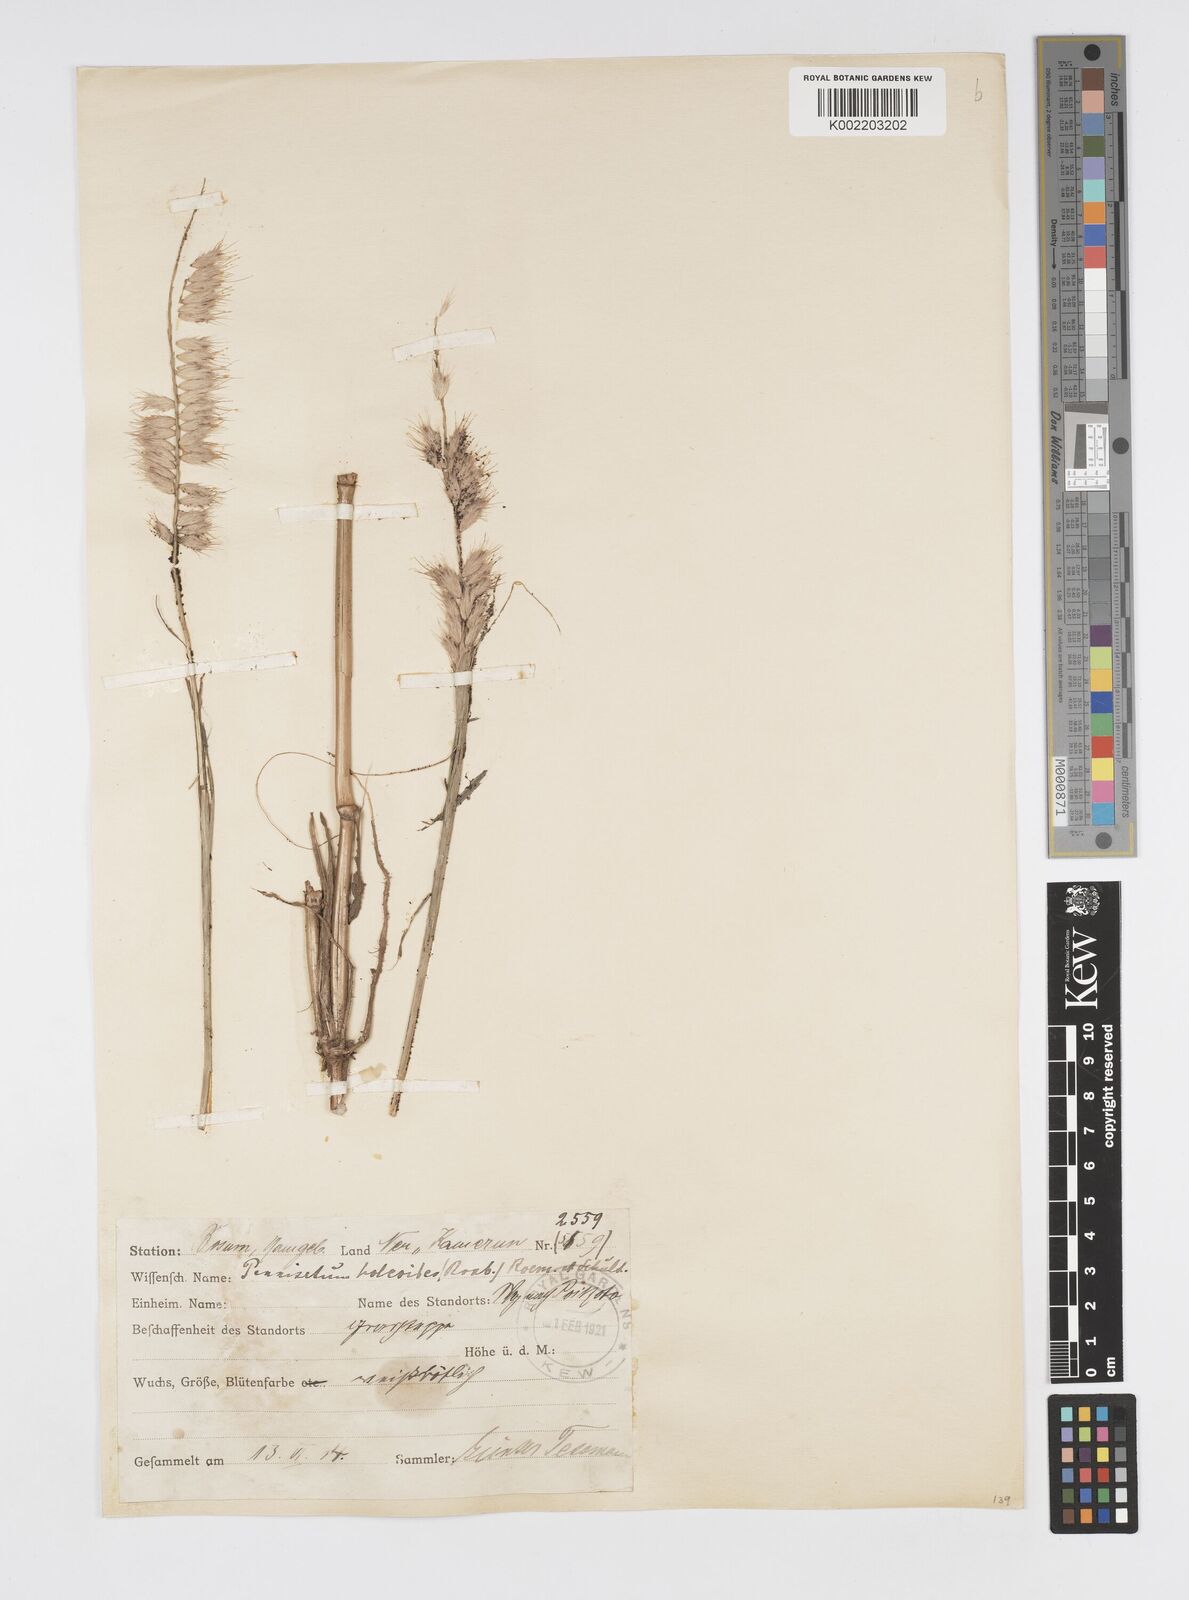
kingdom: Plantae
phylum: Tracheophyta
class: Liliopsida
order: Poales
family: Poaceae
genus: Cenchrus
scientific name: Cenchrus pedicellatus
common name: Hairy fountain grass
